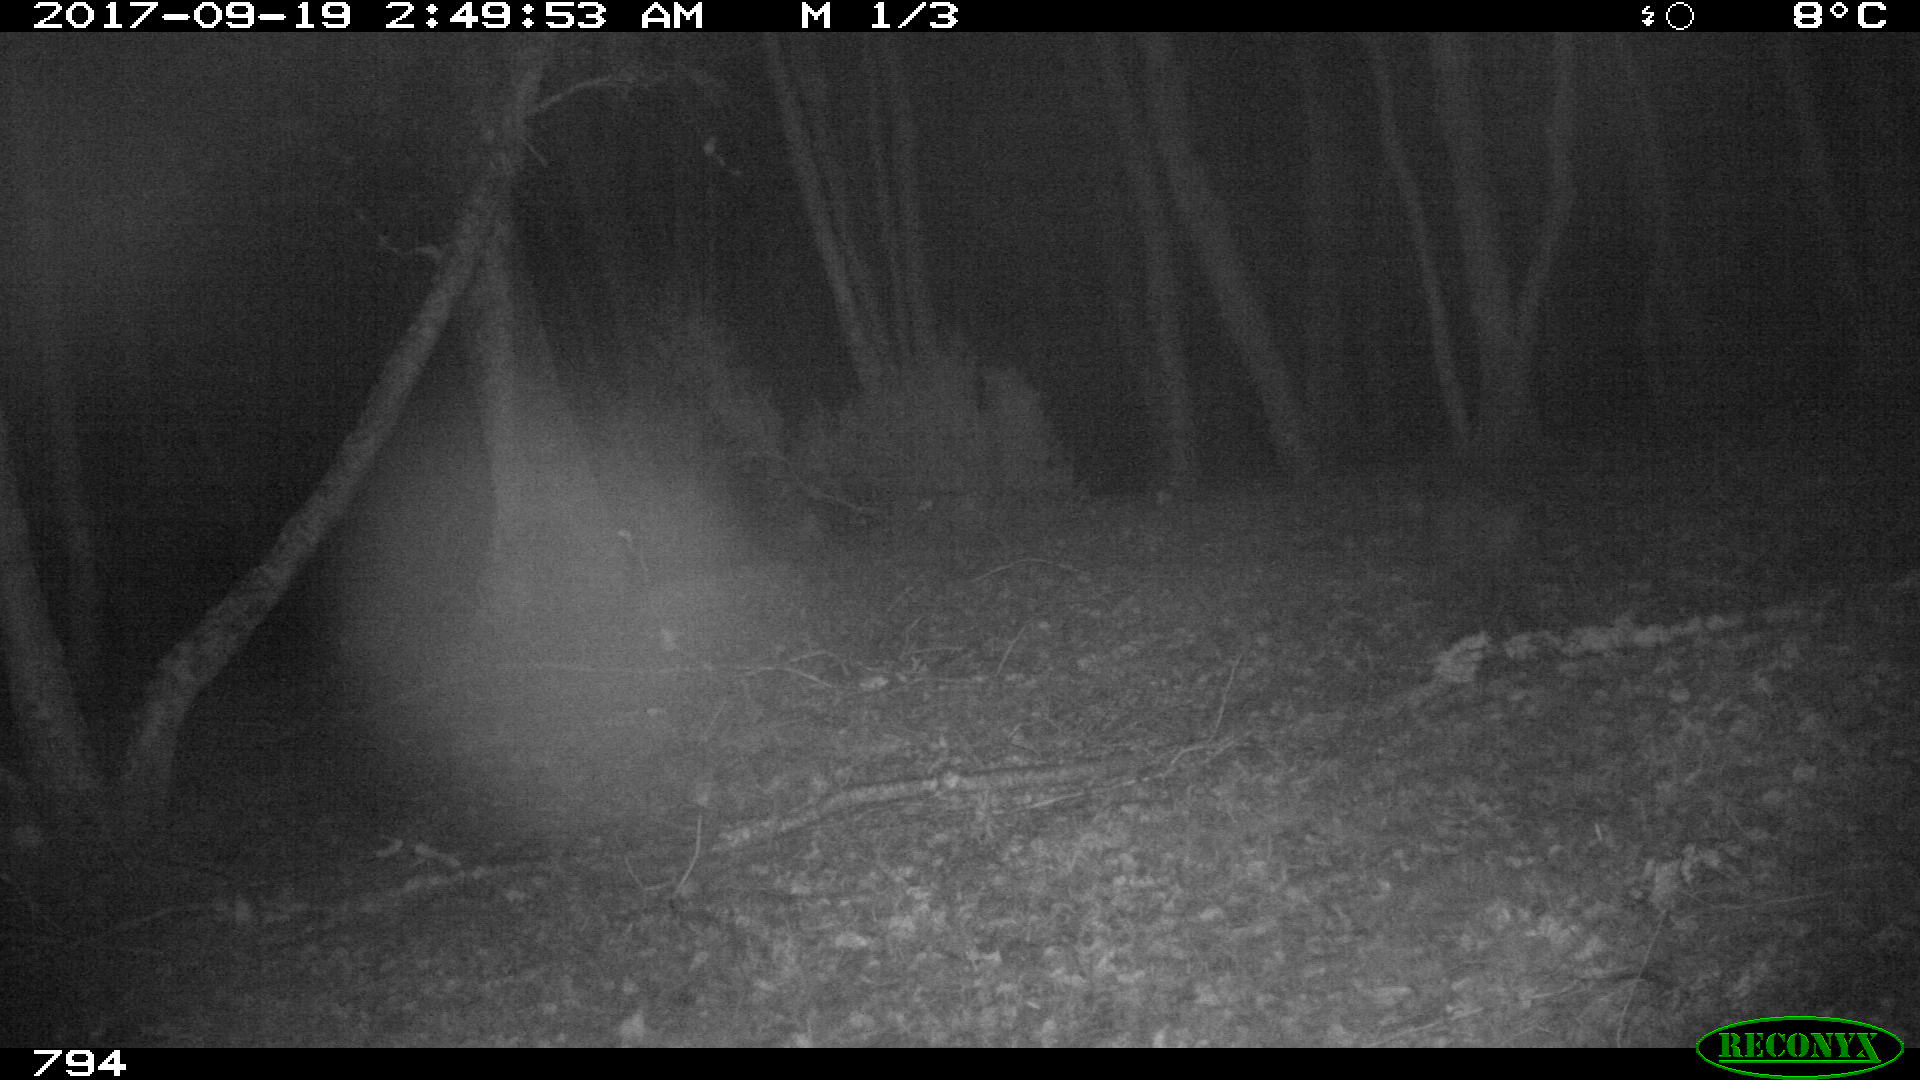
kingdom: Animalia
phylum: Chordata
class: Mammalia
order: Artiodactyla
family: Suidae
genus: Sus
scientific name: Sus scrofa
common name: Wild boar
